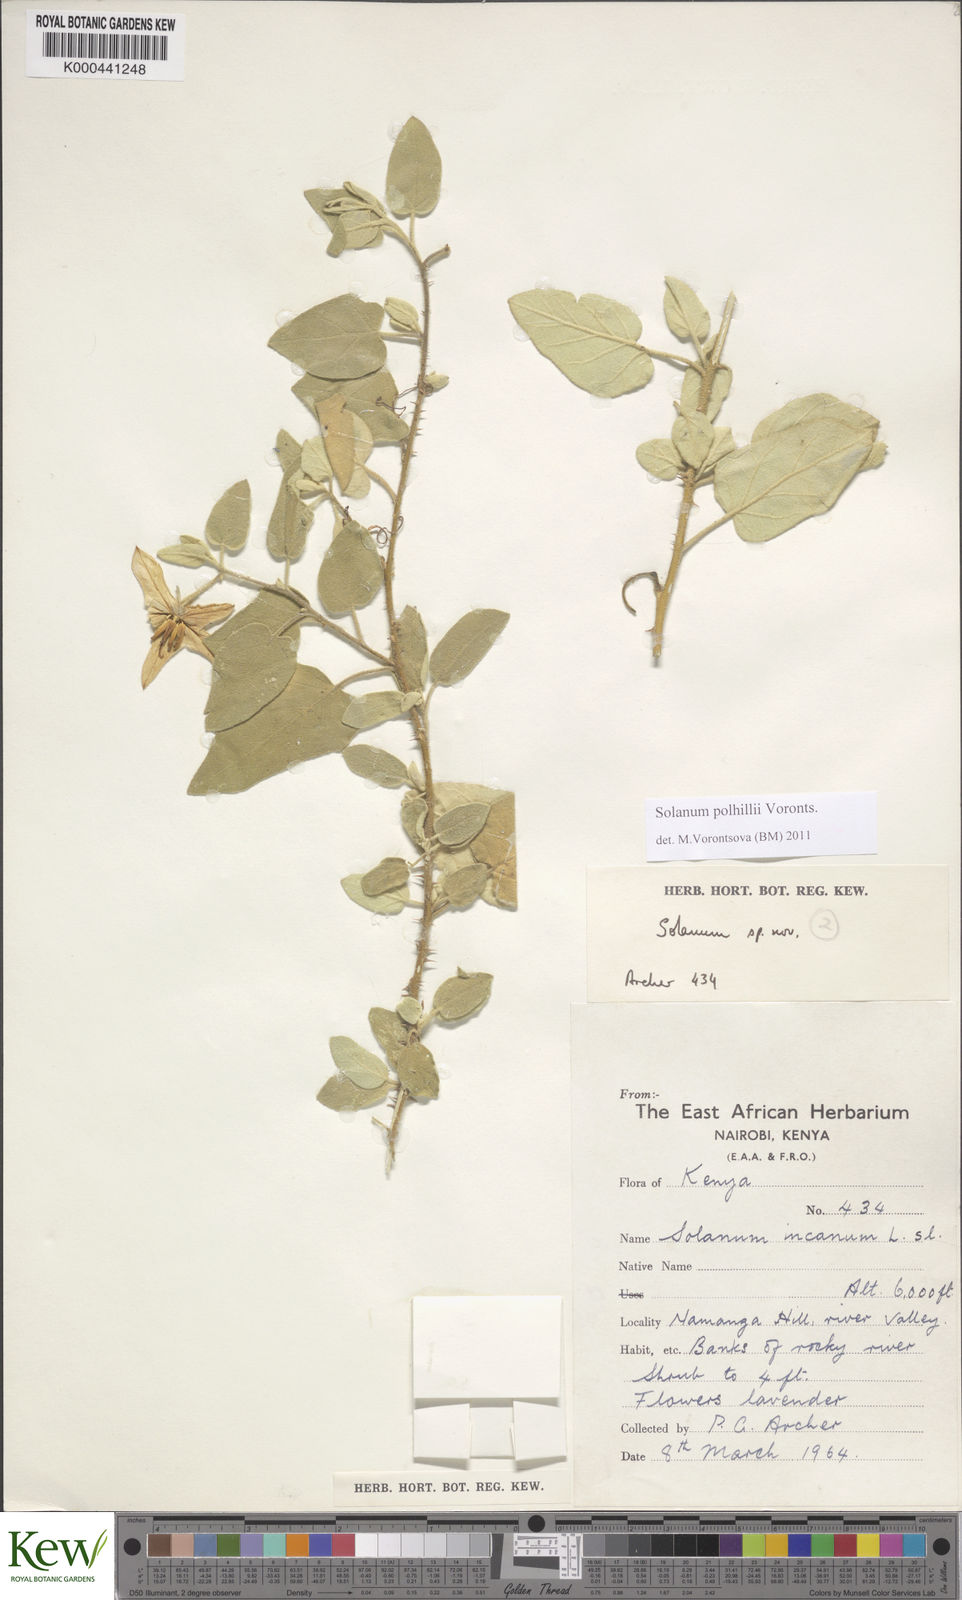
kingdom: Plantae
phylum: Tracheophyta
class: Magnoliopsida
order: Solanales
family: Solanaceae
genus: Solanum
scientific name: Solanum polhillii
